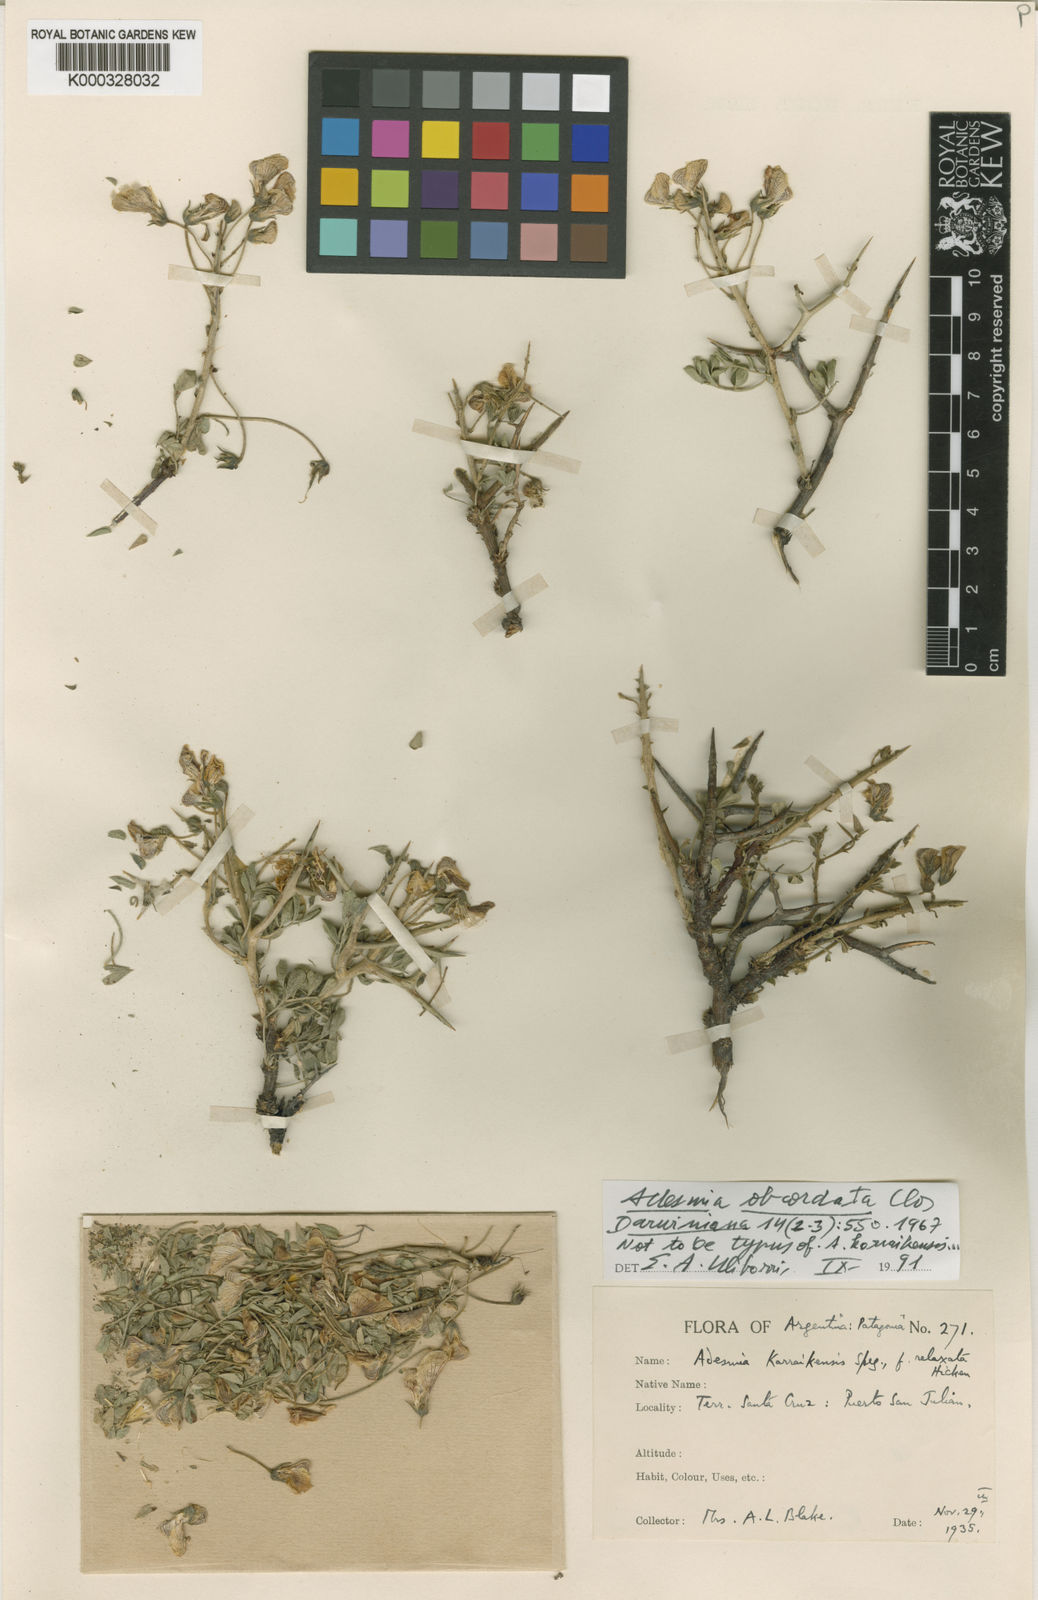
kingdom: Plantae
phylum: Tracheophyta
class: Magnoliopsida
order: Fabales
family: Fabaceae
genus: Adesmia
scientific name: Adesmia karraikensis
